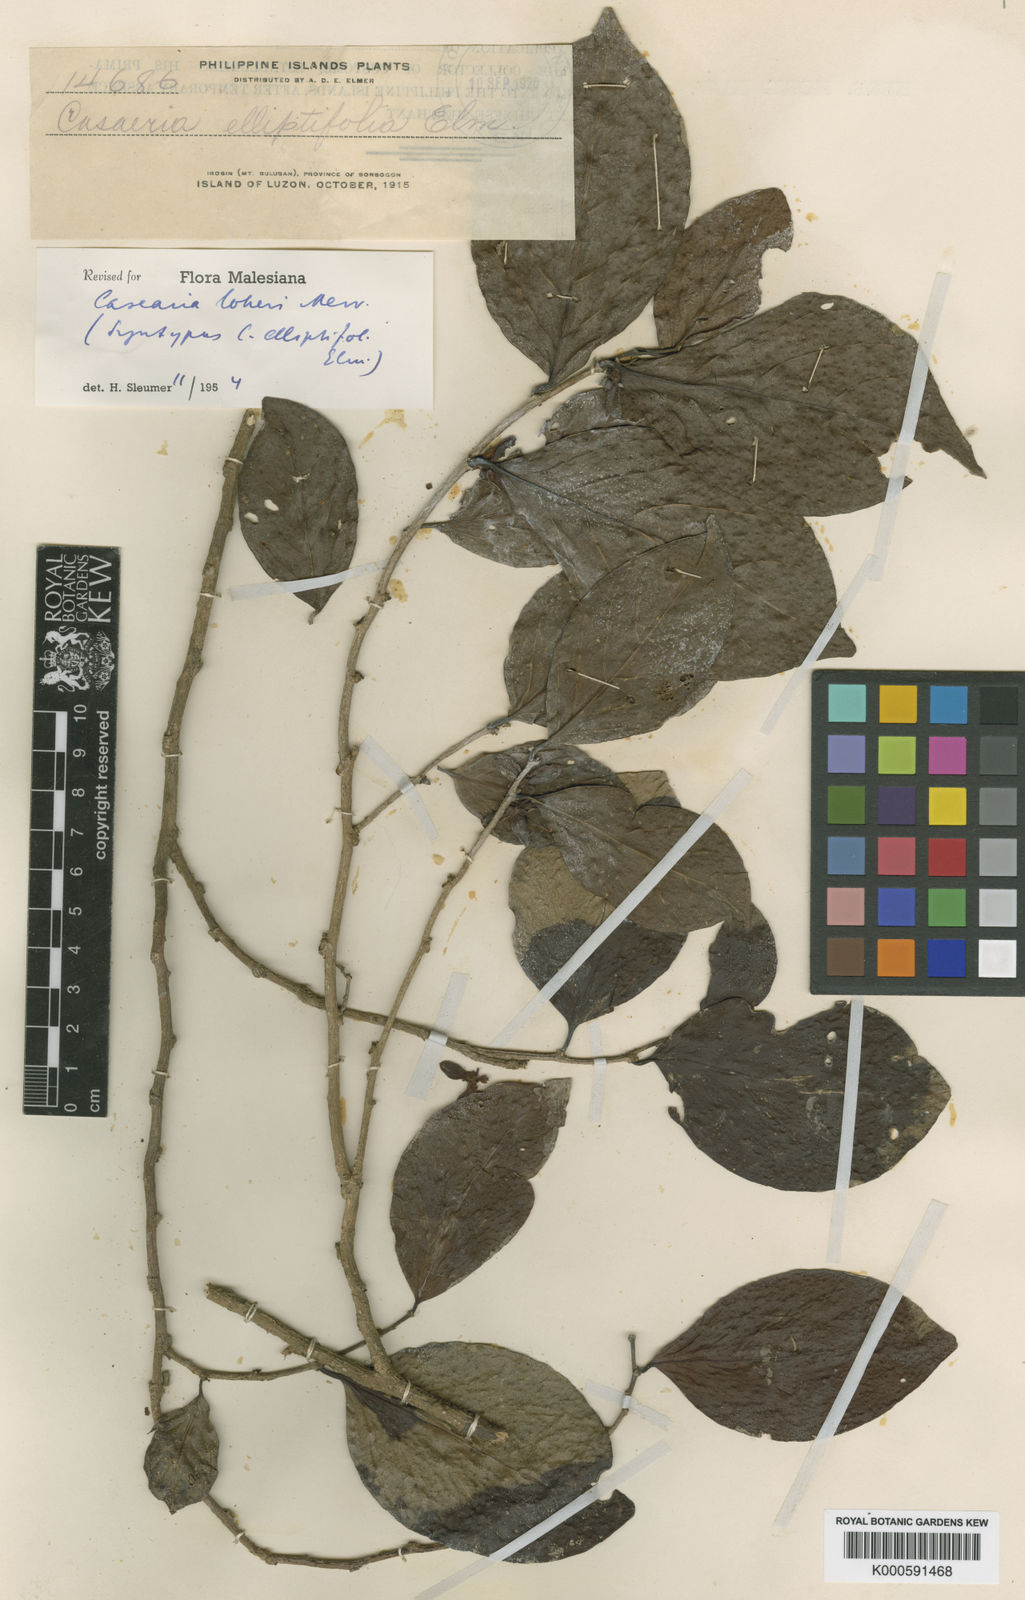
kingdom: Plantae
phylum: Tracheophyta
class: Magnoliopsida
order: Malpighiales
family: Salicaceae
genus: Casearia
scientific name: Casearia loheri
